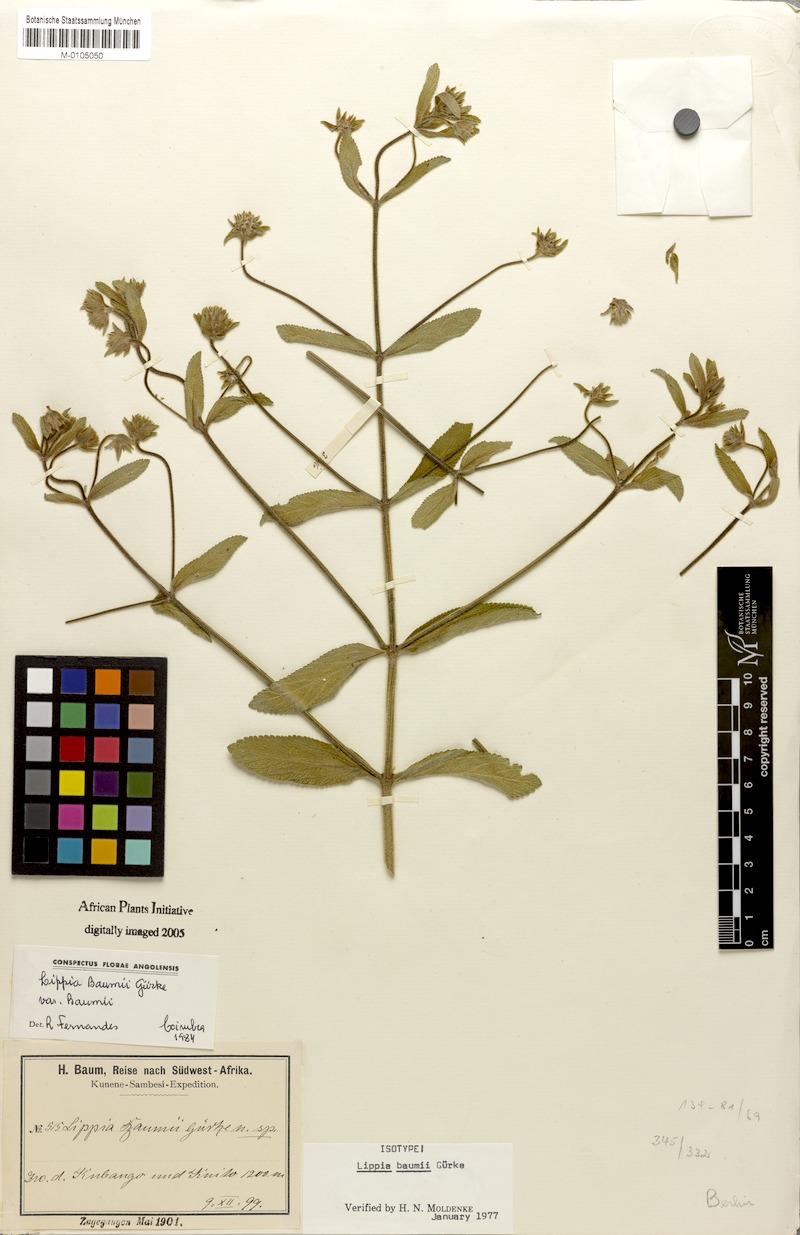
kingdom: Plantae
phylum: Tracheophyta
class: Magnoliopsida
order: Lamiales
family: Verbenaceae
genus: Lippia
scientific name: Lippia baumii
